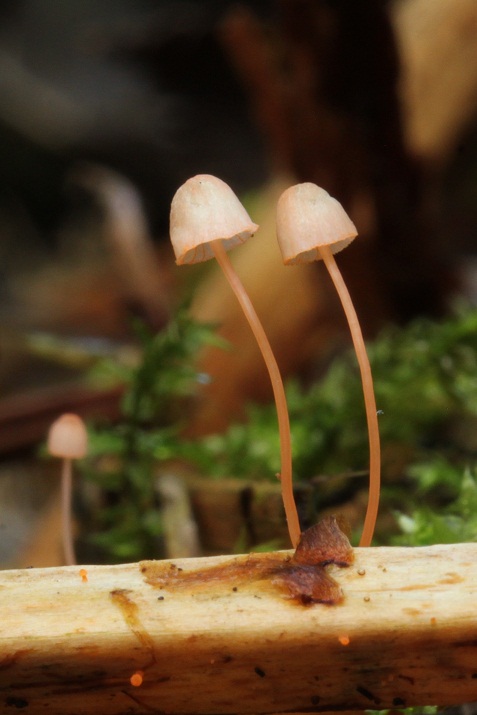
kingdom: Fungi
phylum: Basidiomycota
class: Agaricomycetes
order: Agaricales
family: Mycenaceae
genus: Mycena
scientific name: Mycena pterigena
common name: bregne-huesvamp
